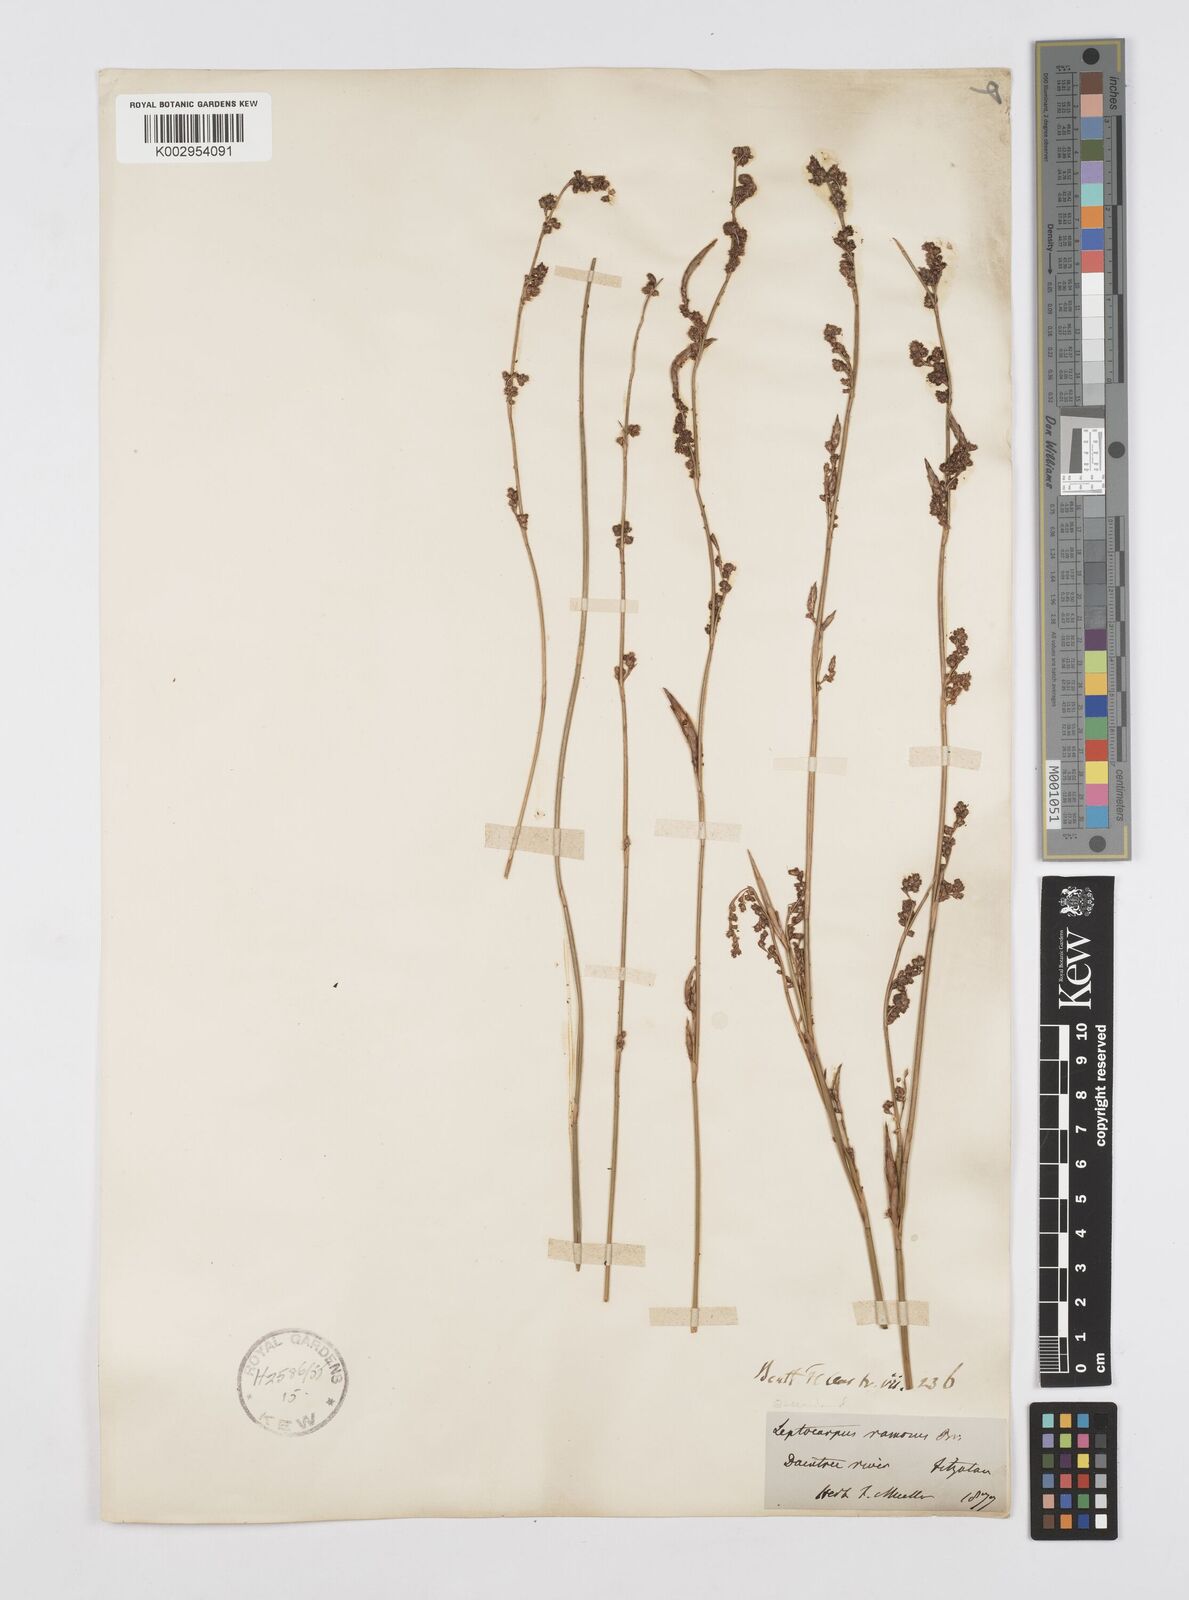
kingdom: Plantae
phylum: Tracheophyta
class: Liliopsida
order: Poales
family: Restionaceae
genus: Dapsilanthus
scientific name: Dapsilanthus ramosus
